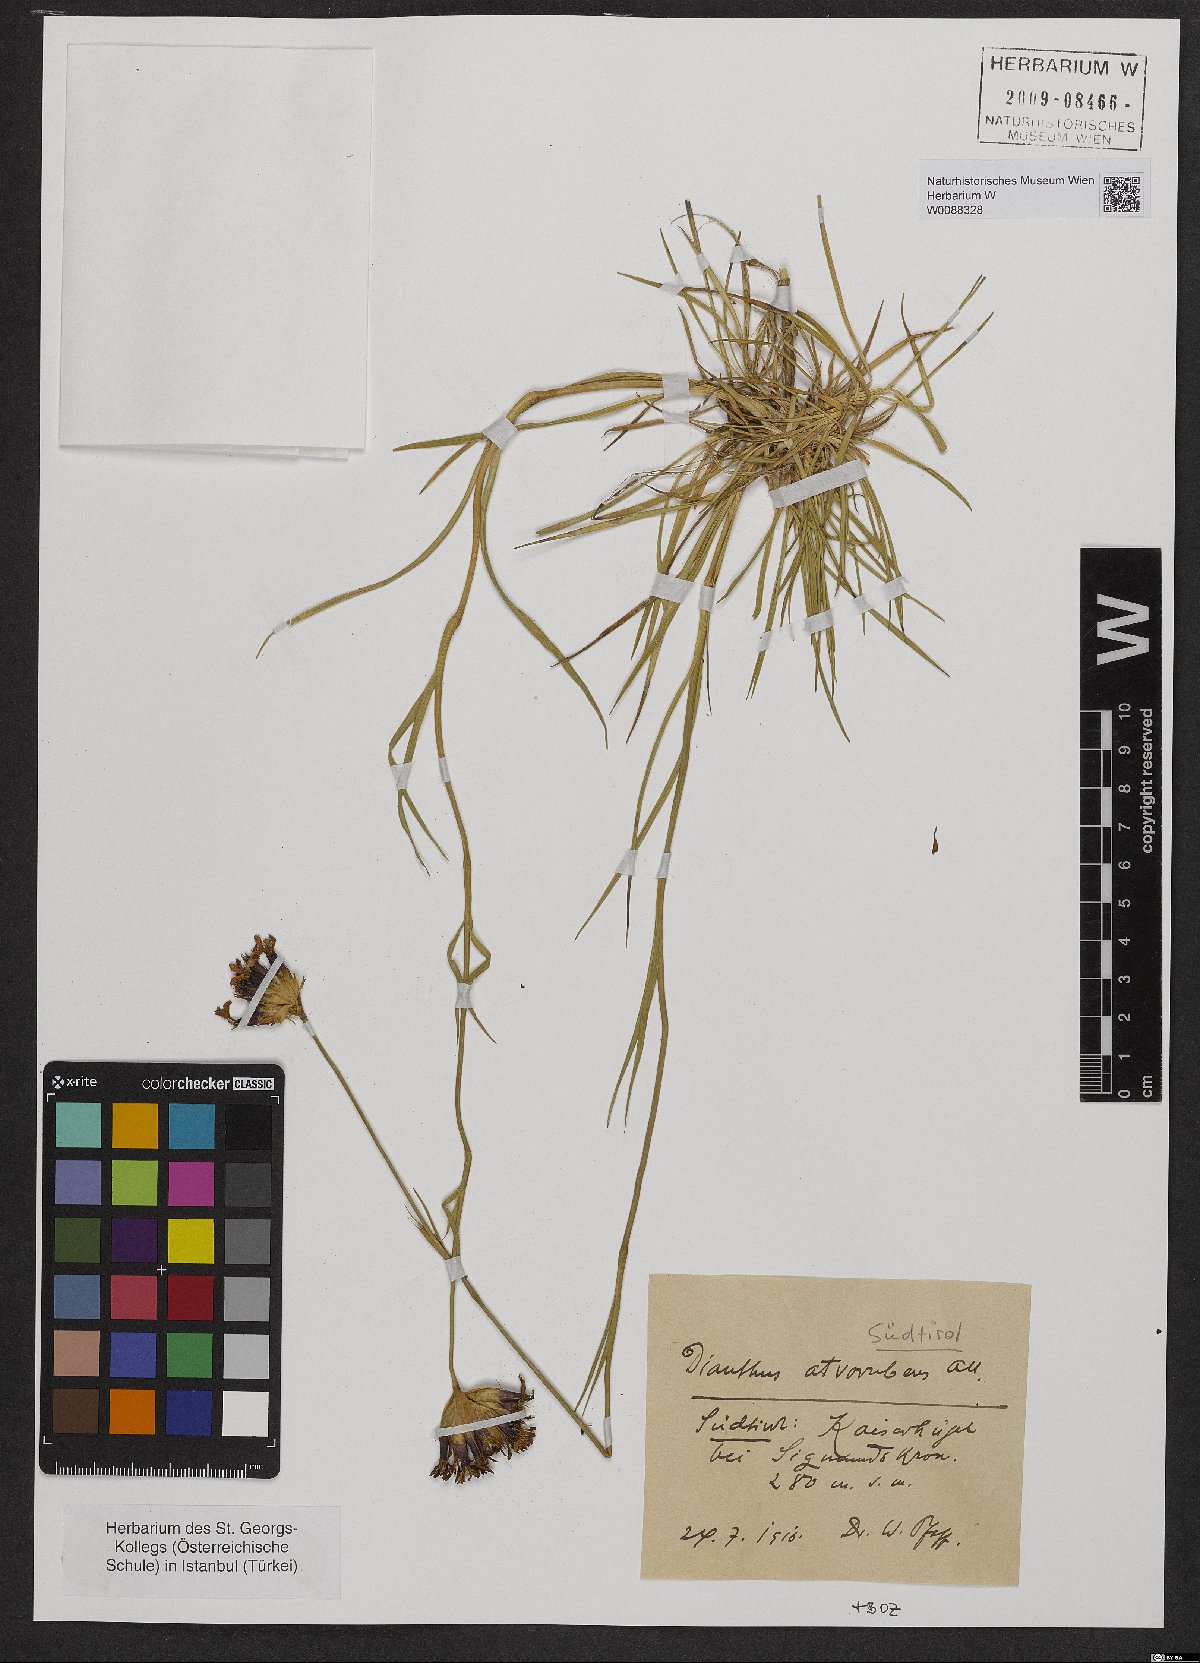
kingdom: Plantae
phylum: Tracheophyta
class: Magnoliopsida
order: Caryophyllales
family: Caryophyllaceae
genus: Dianthus
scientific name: Dianthus carthusianorum
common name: Carthusian pink
